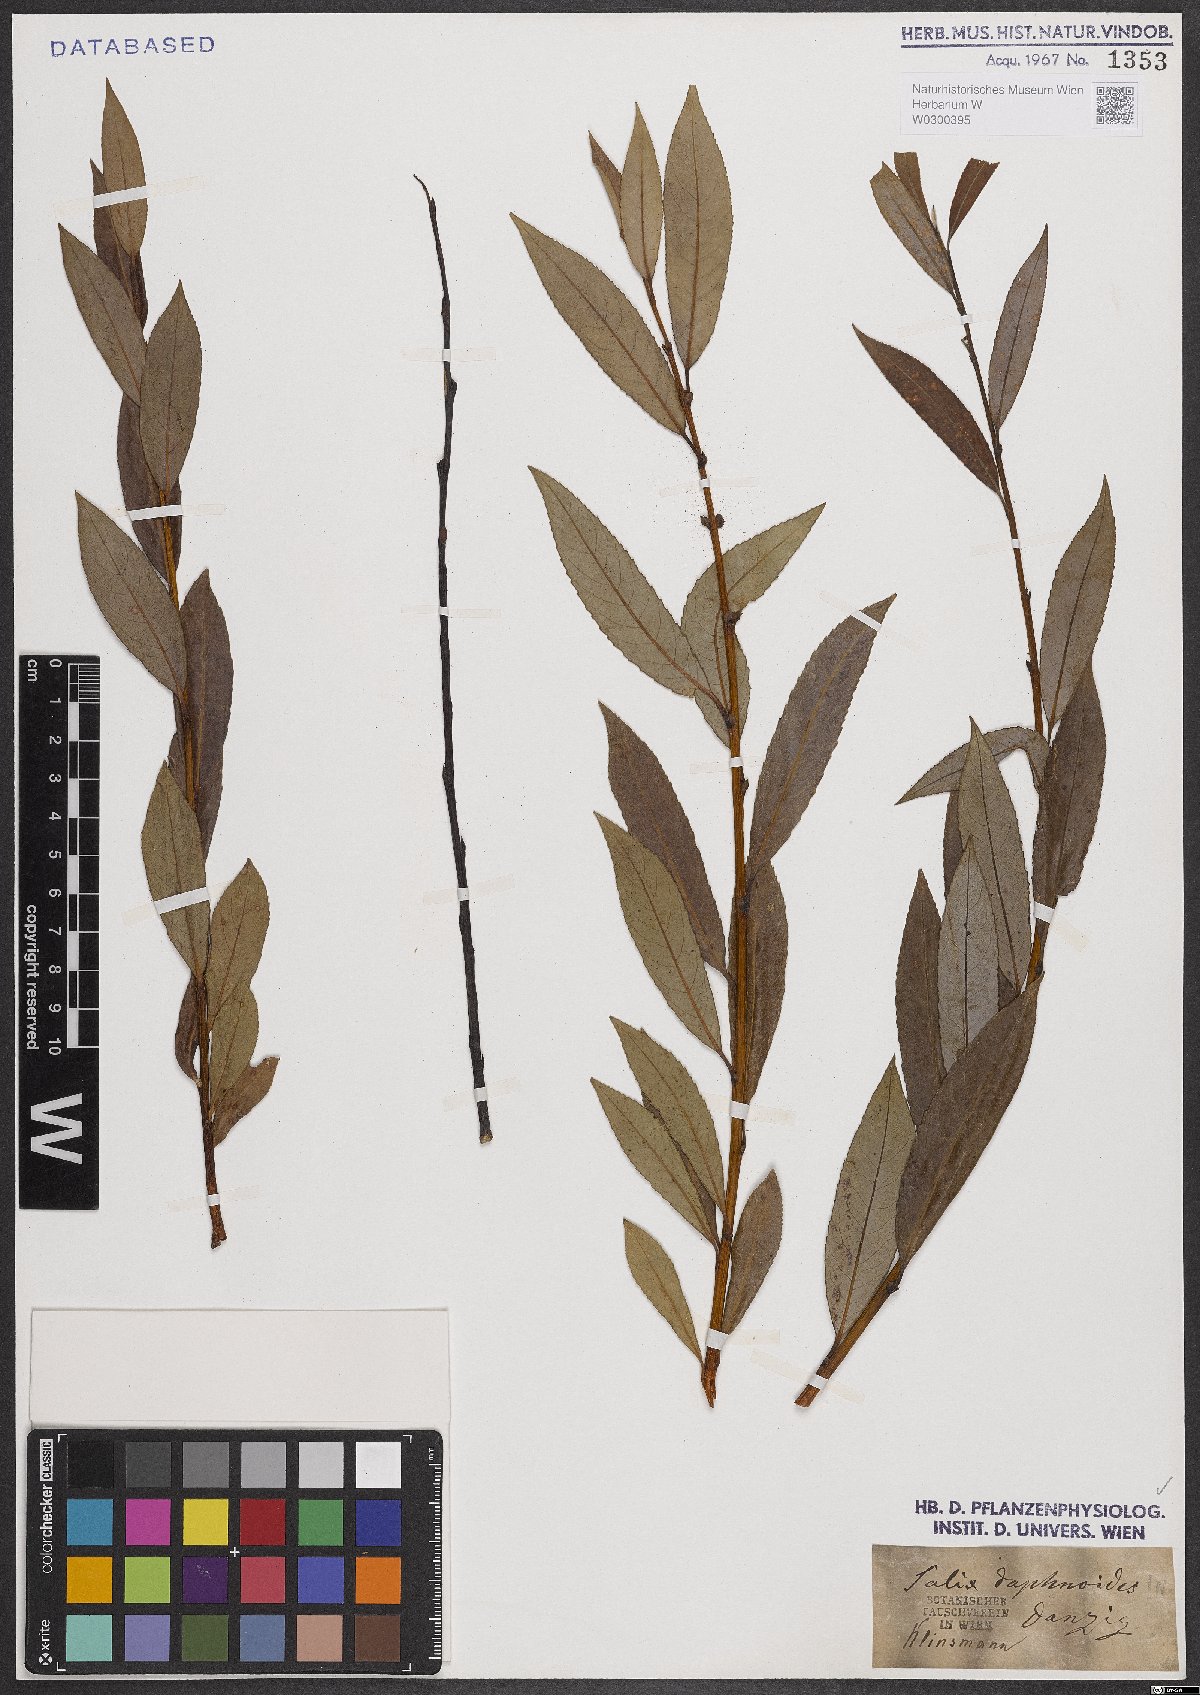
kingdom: Plantae
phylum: Tracheophyta
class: Magnoliopsida
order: Malpighiales
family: Salicaceae
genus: Salix
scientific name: Salix daphnoides
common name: European violet-willow
